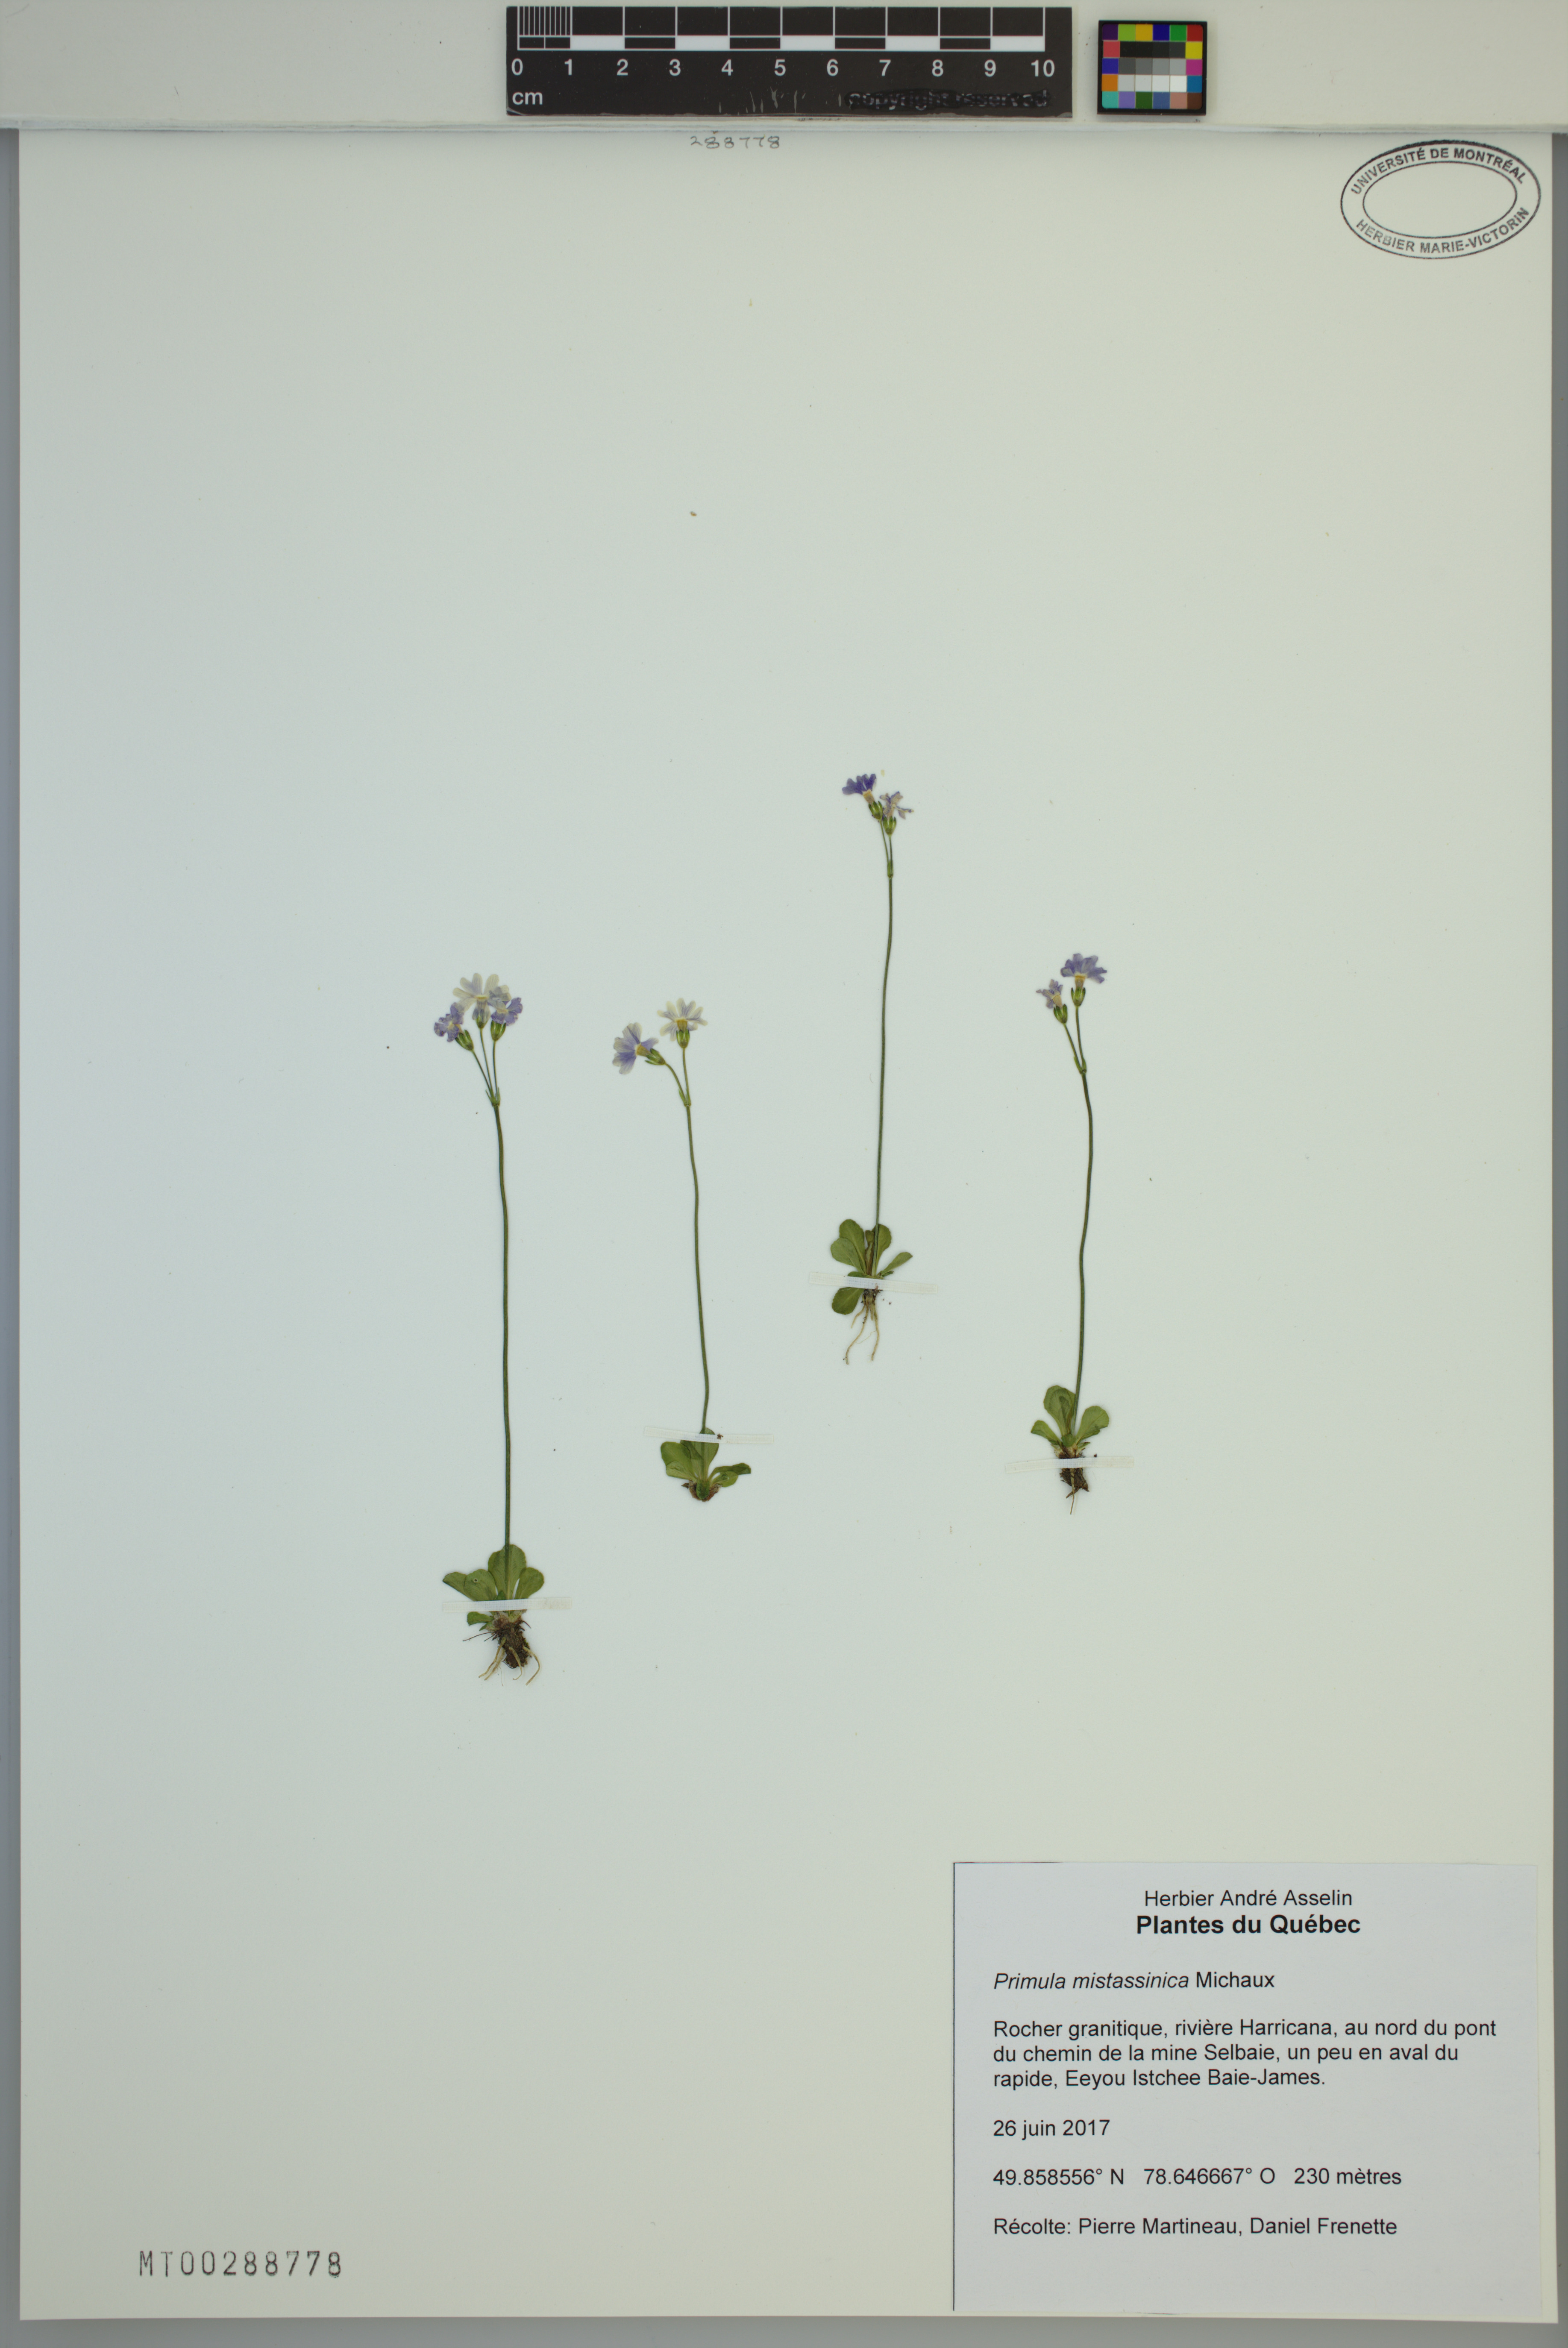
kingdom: Plantae
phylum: Tracheophyta
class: Magnoliopsida
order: Ericales
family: Primulaceae
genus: Primula
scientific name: Primula mistassinica
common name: Bird's-eye primrose
